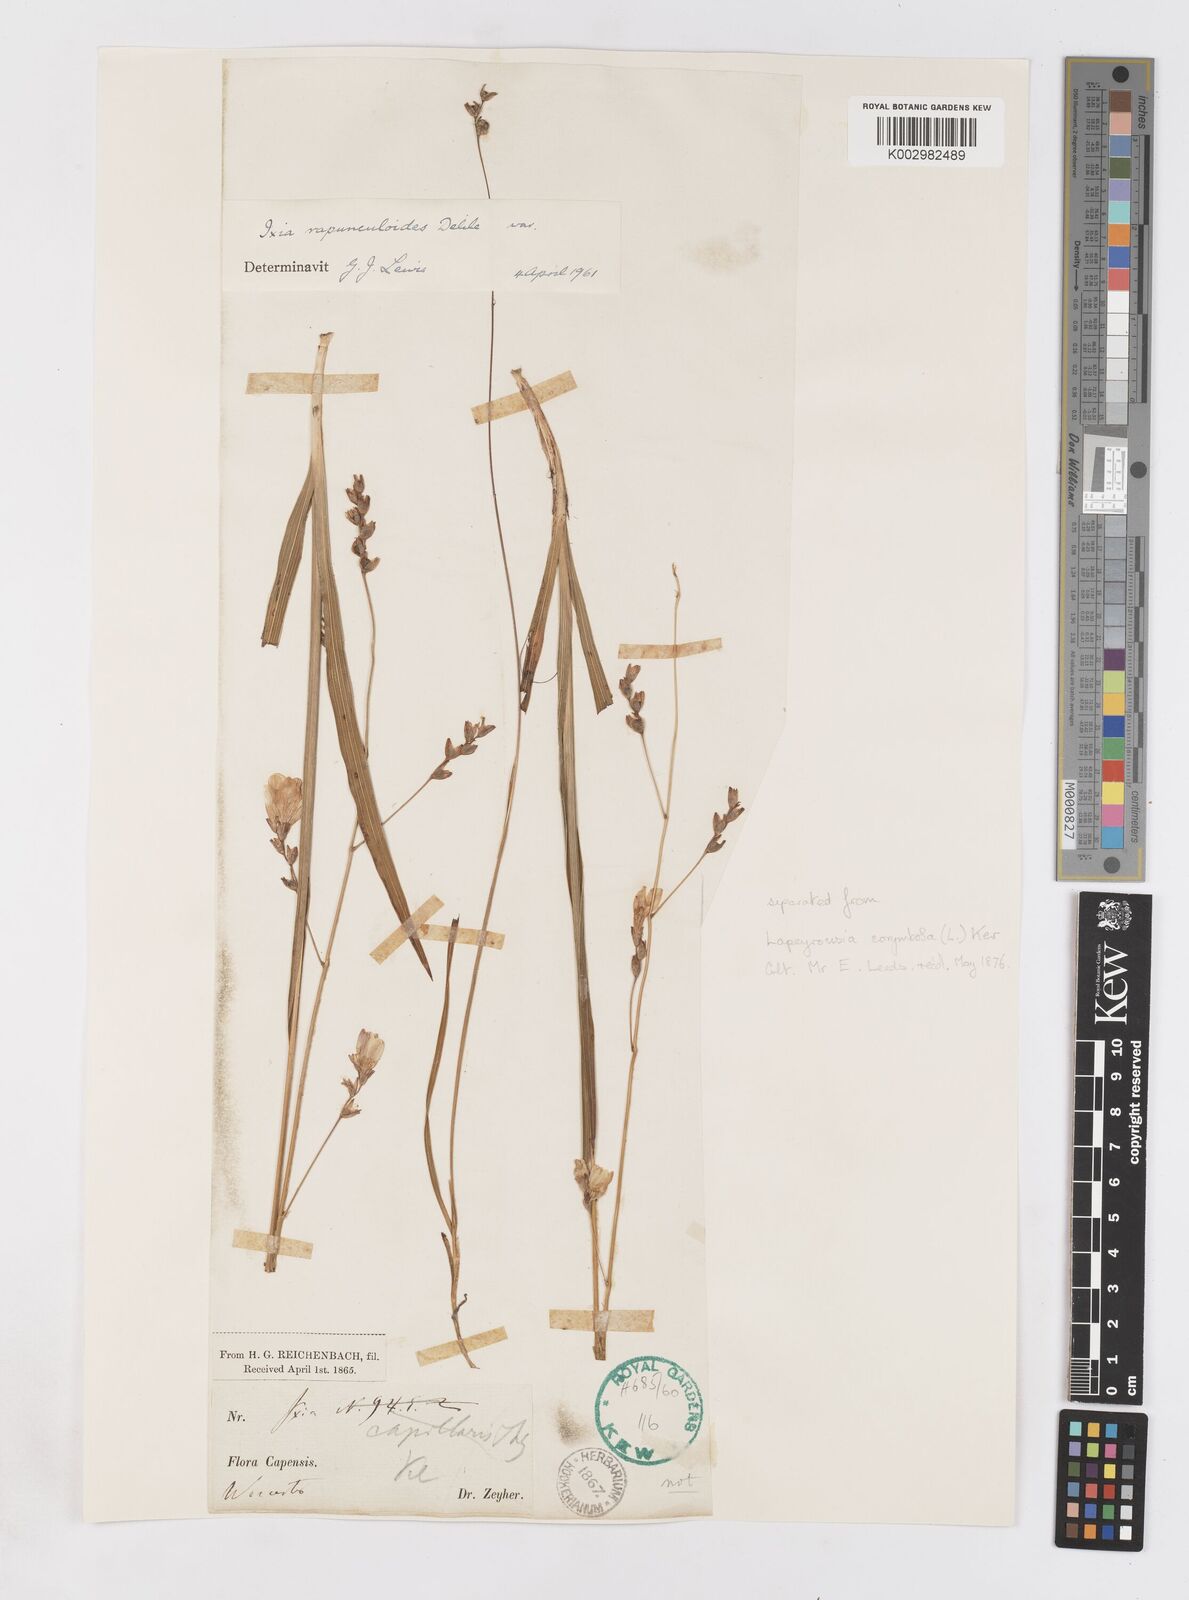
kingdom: Plantae
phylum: Tracheophyta
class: Liliopsida
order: Asparagales
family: Iridaceae
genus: Ixia
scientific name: Ixia rapunculoides
